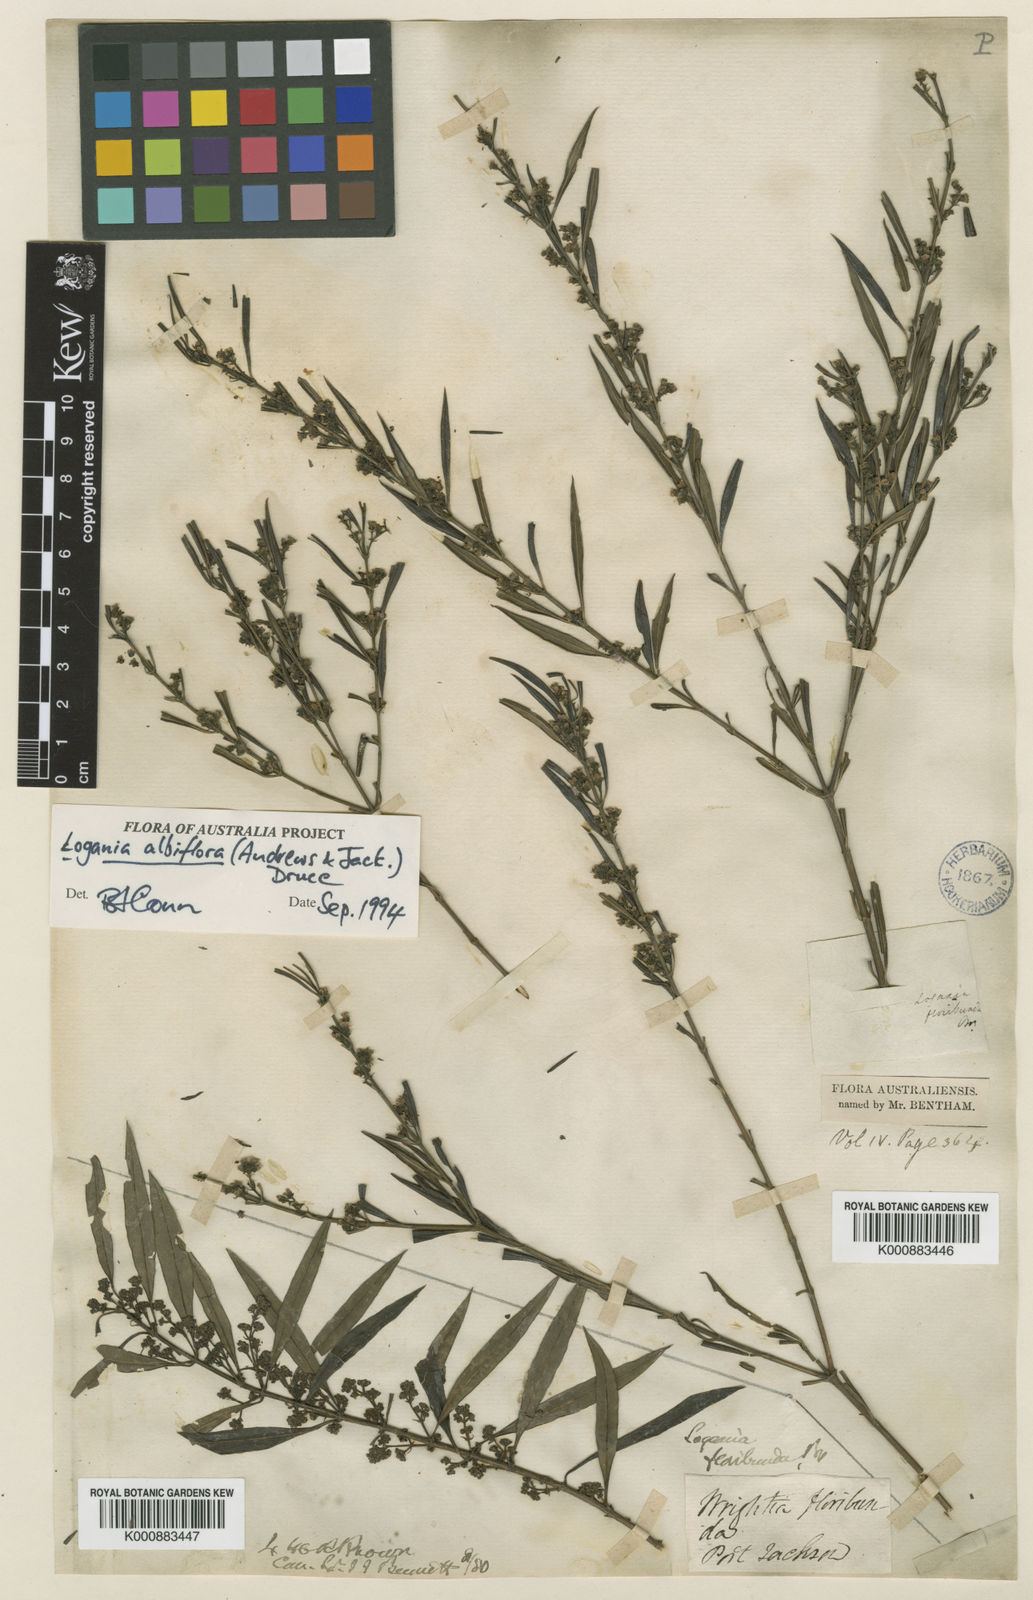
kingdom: Plantae
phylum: Tracheophyta
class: Magnoliopsida
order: Gentianales
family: Loganiaceae
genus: Logania
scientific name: Logania albiflora
